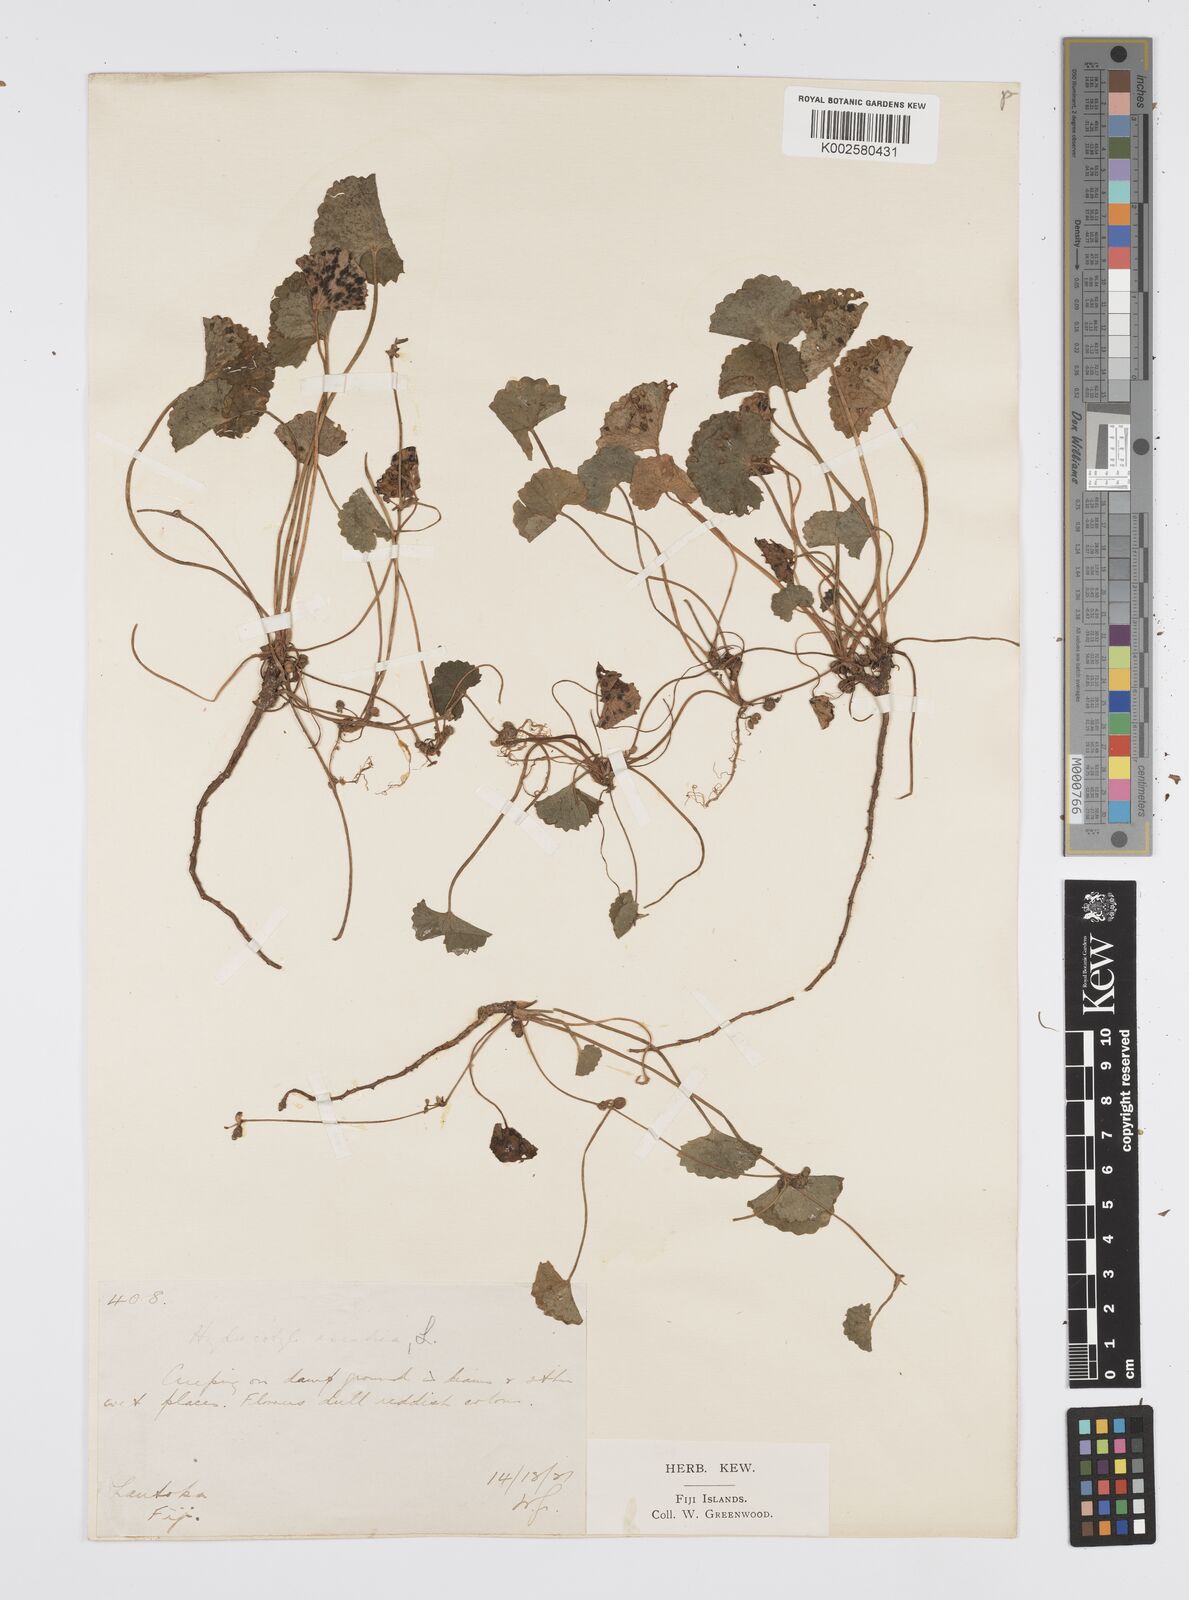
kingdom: Plantae
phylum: Tracheophyta
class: Magnoliopsida
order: Apiales
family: Apiaceae
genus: Centella
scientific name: Centella asiatica
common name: Spadeleaf
